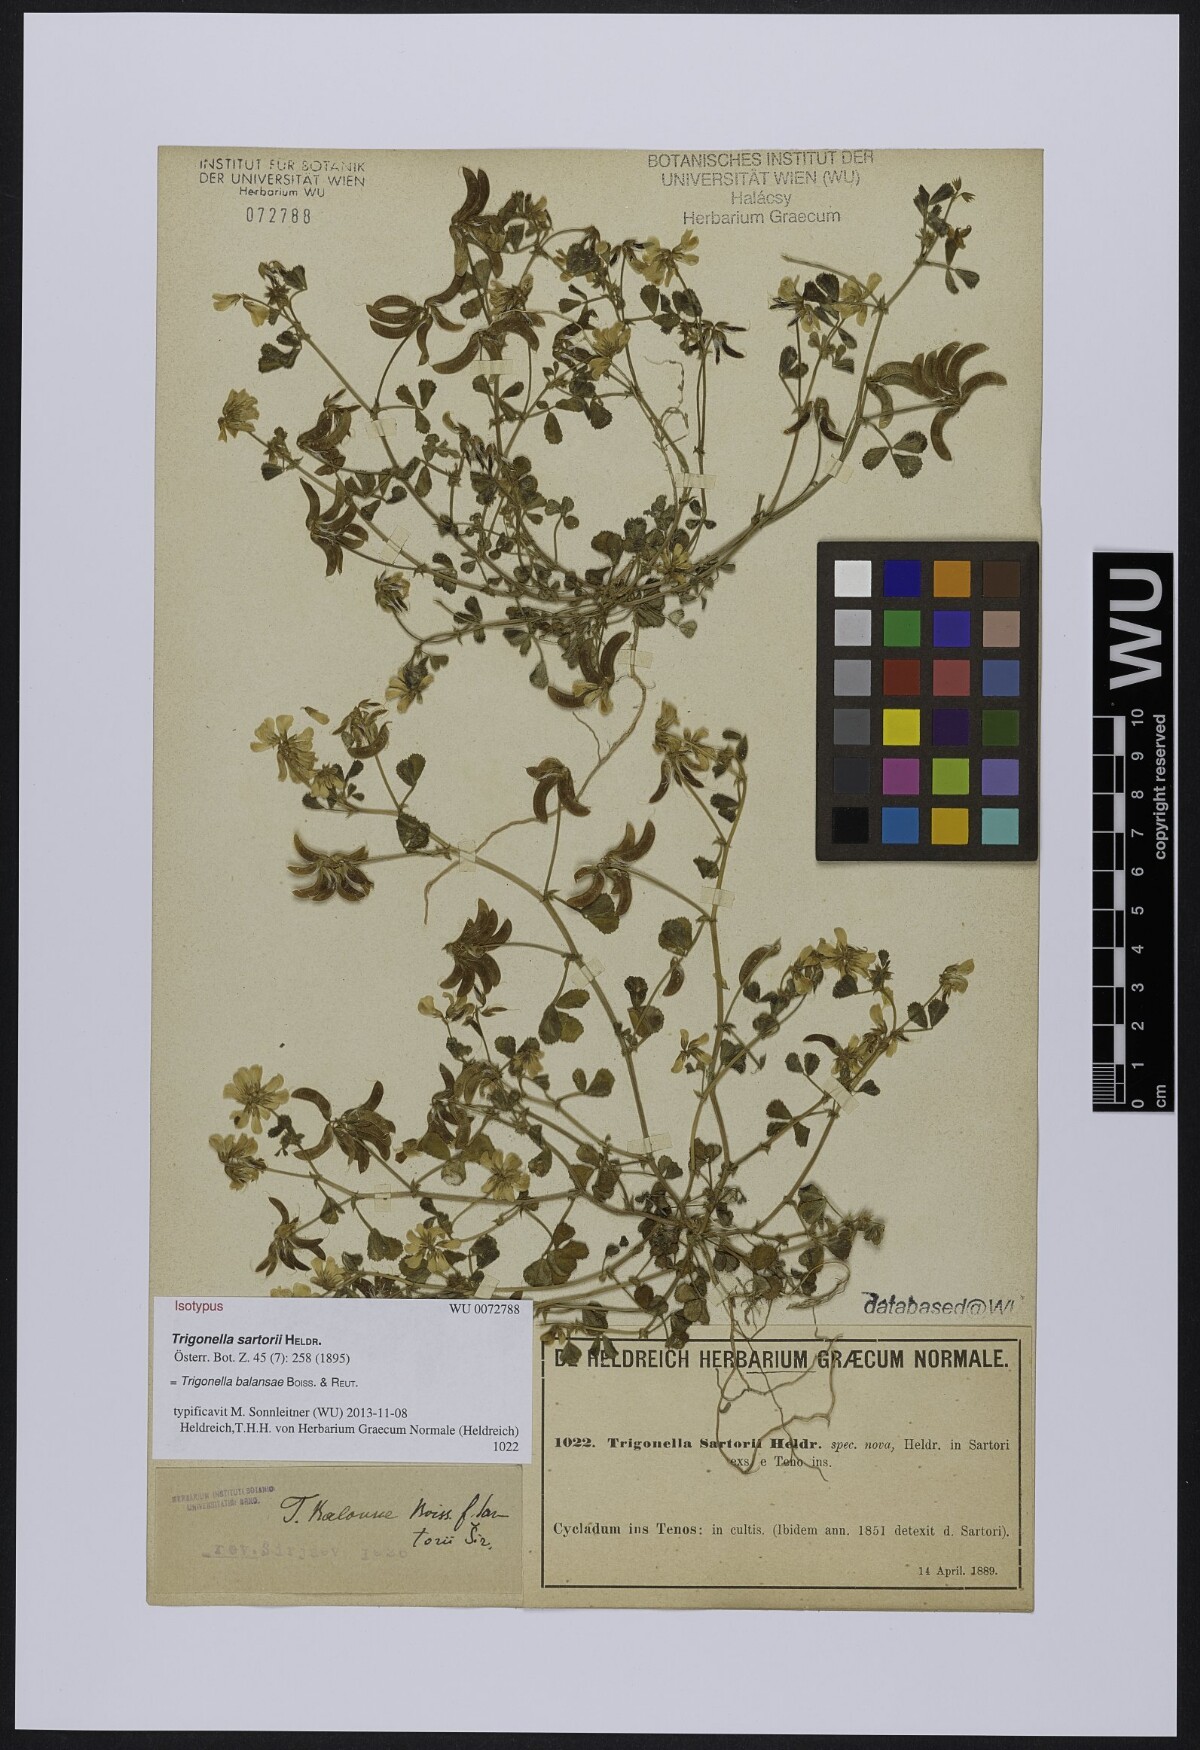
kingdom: Plantae
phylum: Tracheophyta
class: Magnoliopsida
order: Fabales
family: Fabaceae
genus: Trigonella
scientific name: Trigonella
